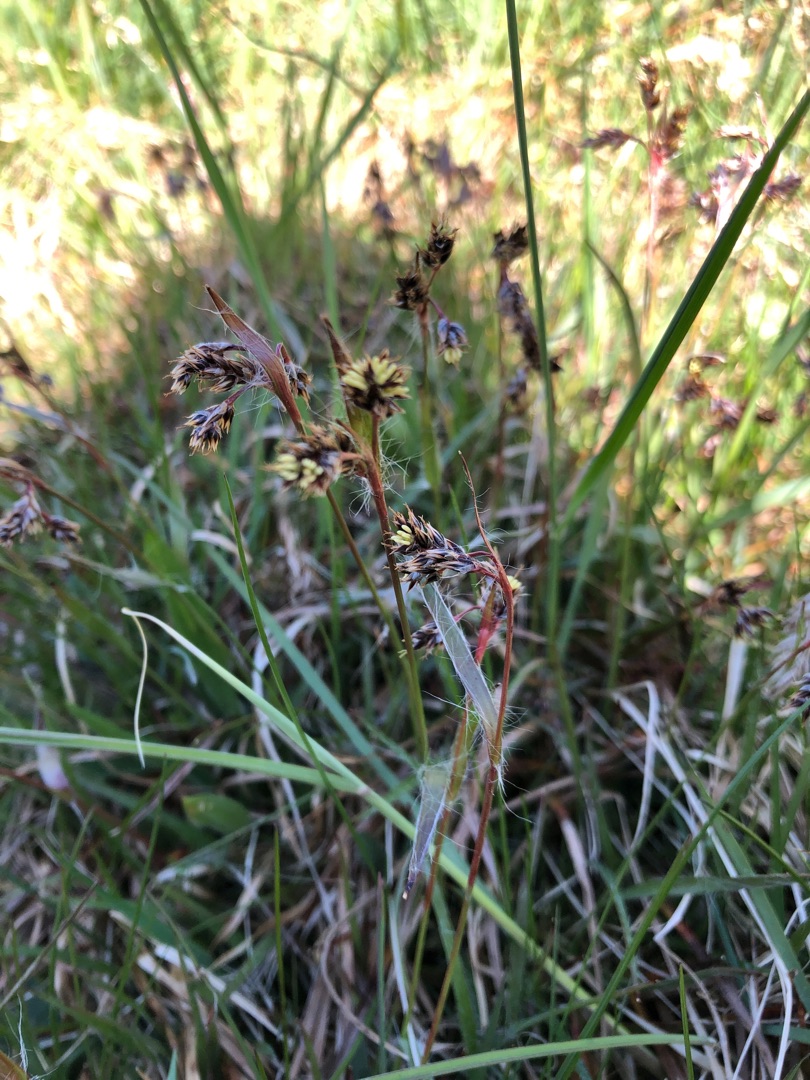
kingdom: Plantae
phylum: Tracheophyta
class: Liliopsida
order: Poales
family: Juncaceae
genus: Luzula
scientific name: Luzula campestris
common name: Mark-frytle
